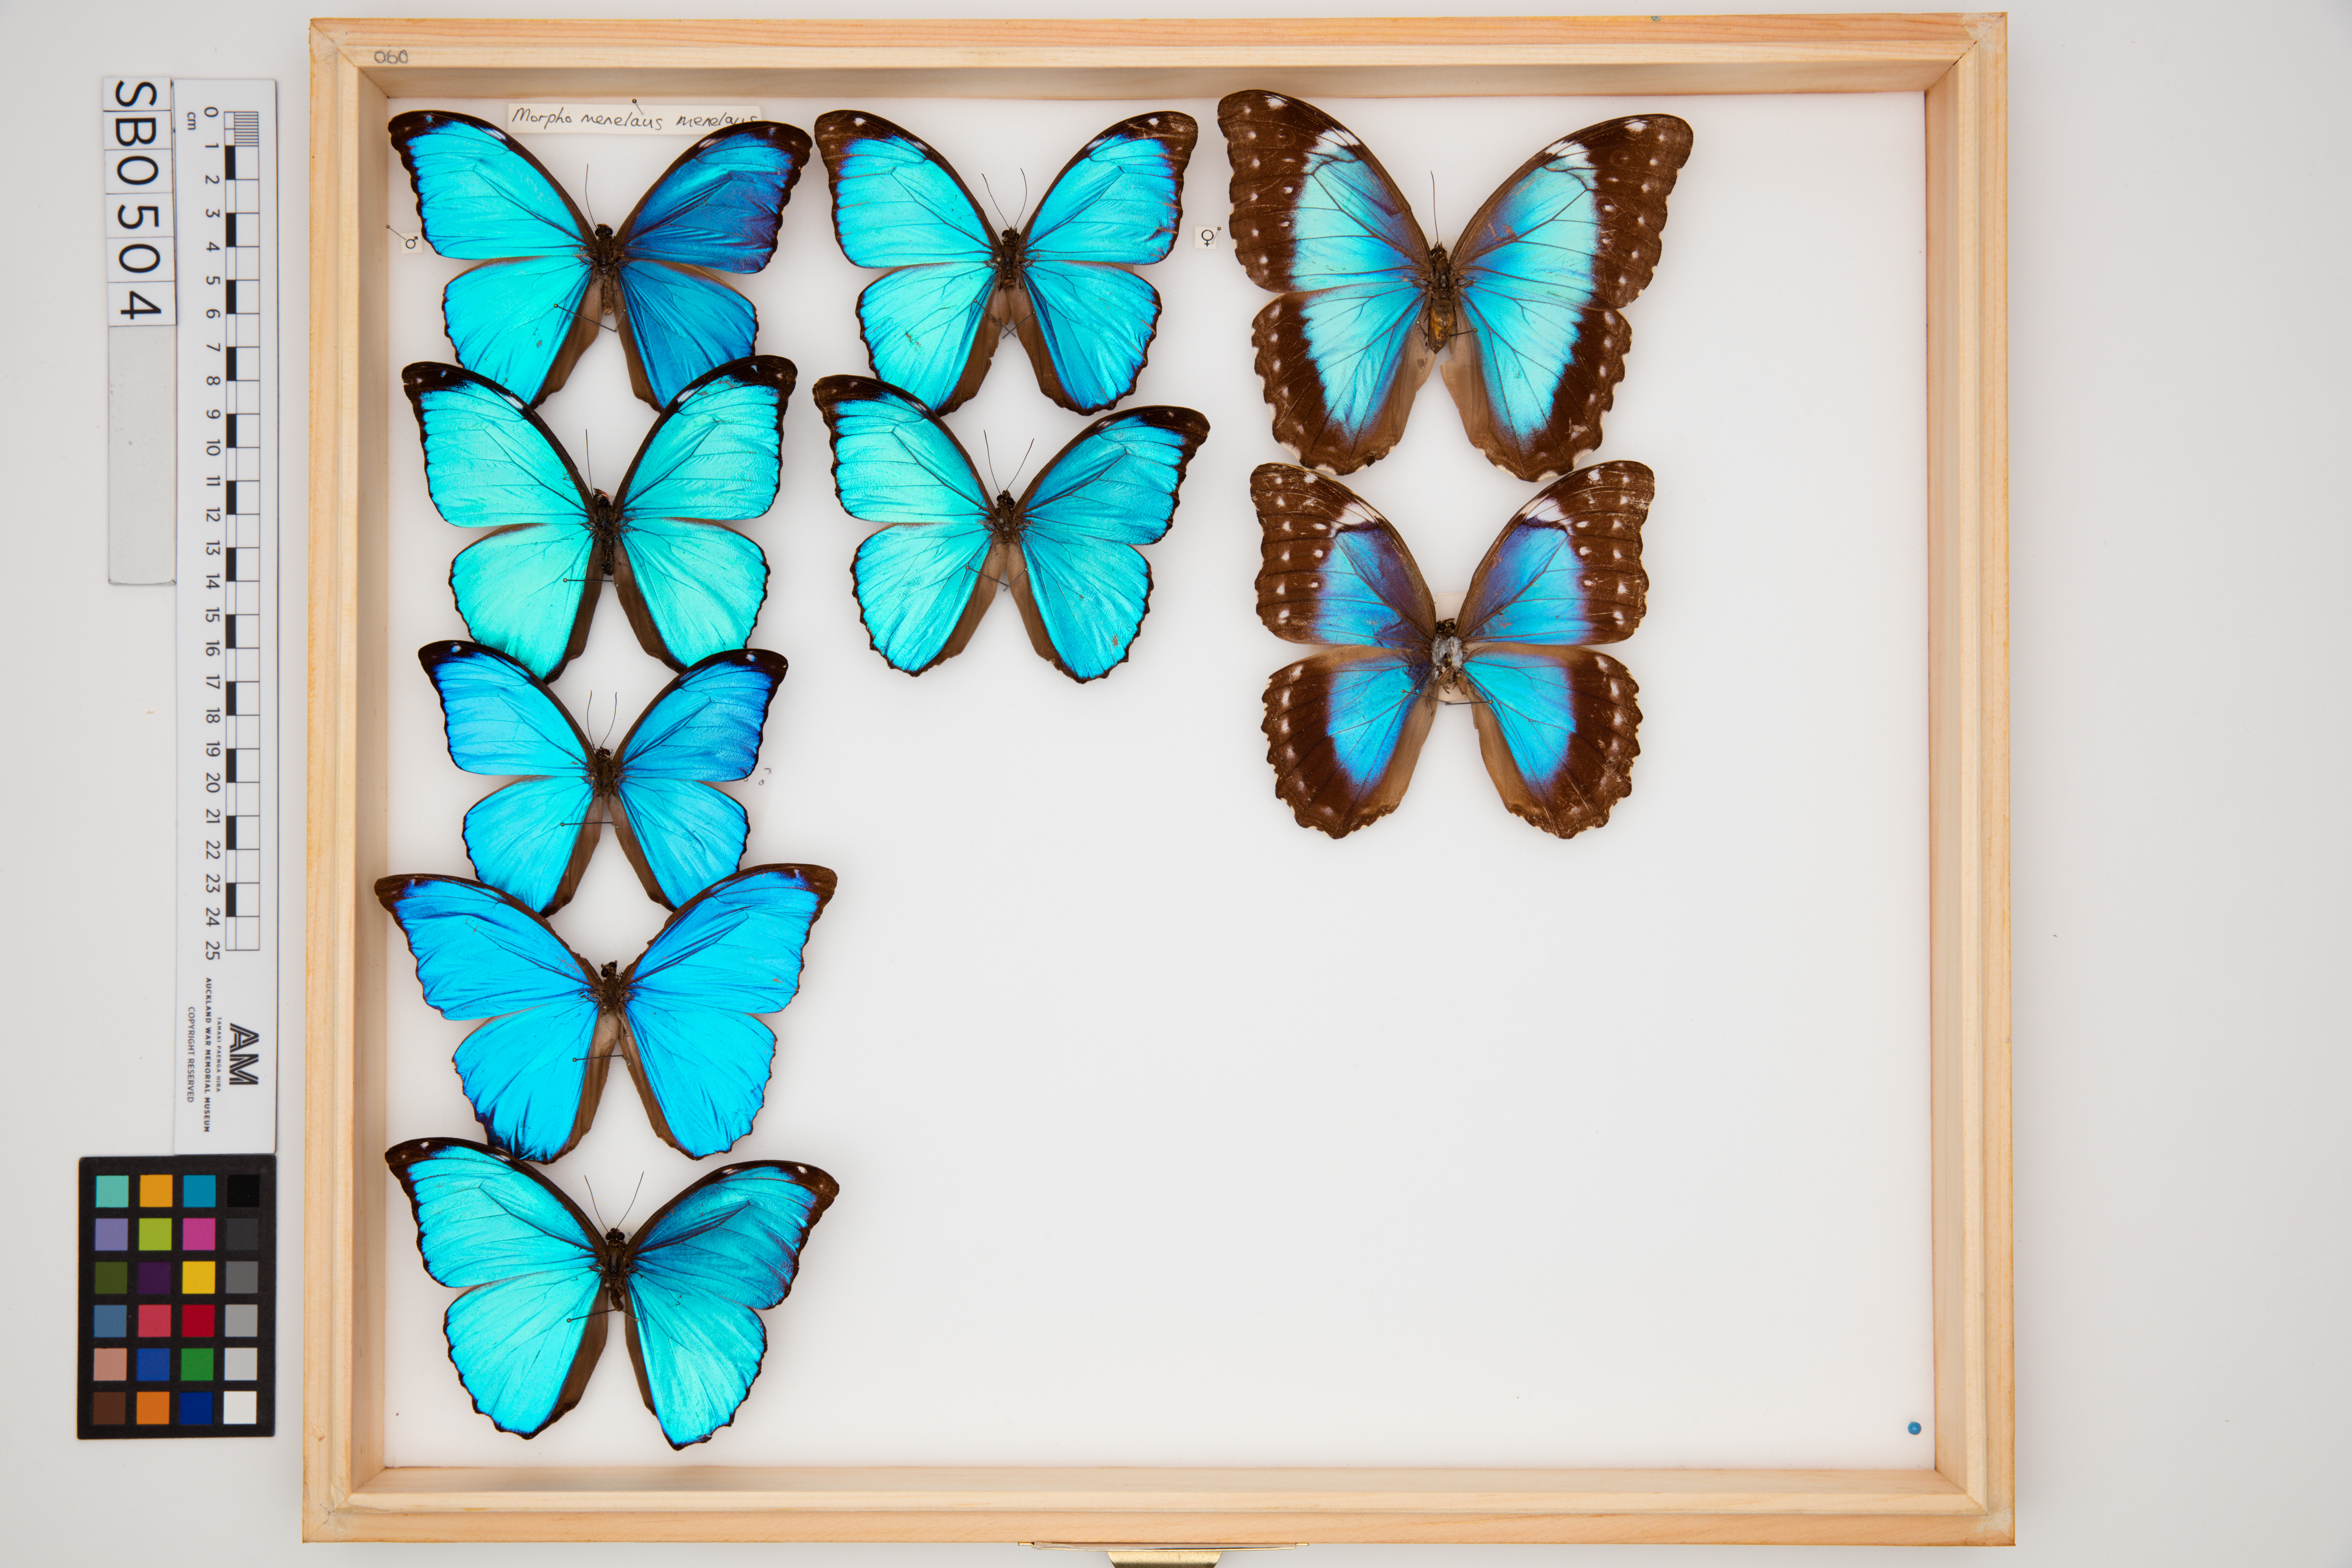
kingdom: Animalia
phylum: Arthropoda
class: Insecta
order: Lepidoptera
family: Nymphalidae
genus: Morpho
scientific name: Morpho menelaus
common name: Menelaus morpho
